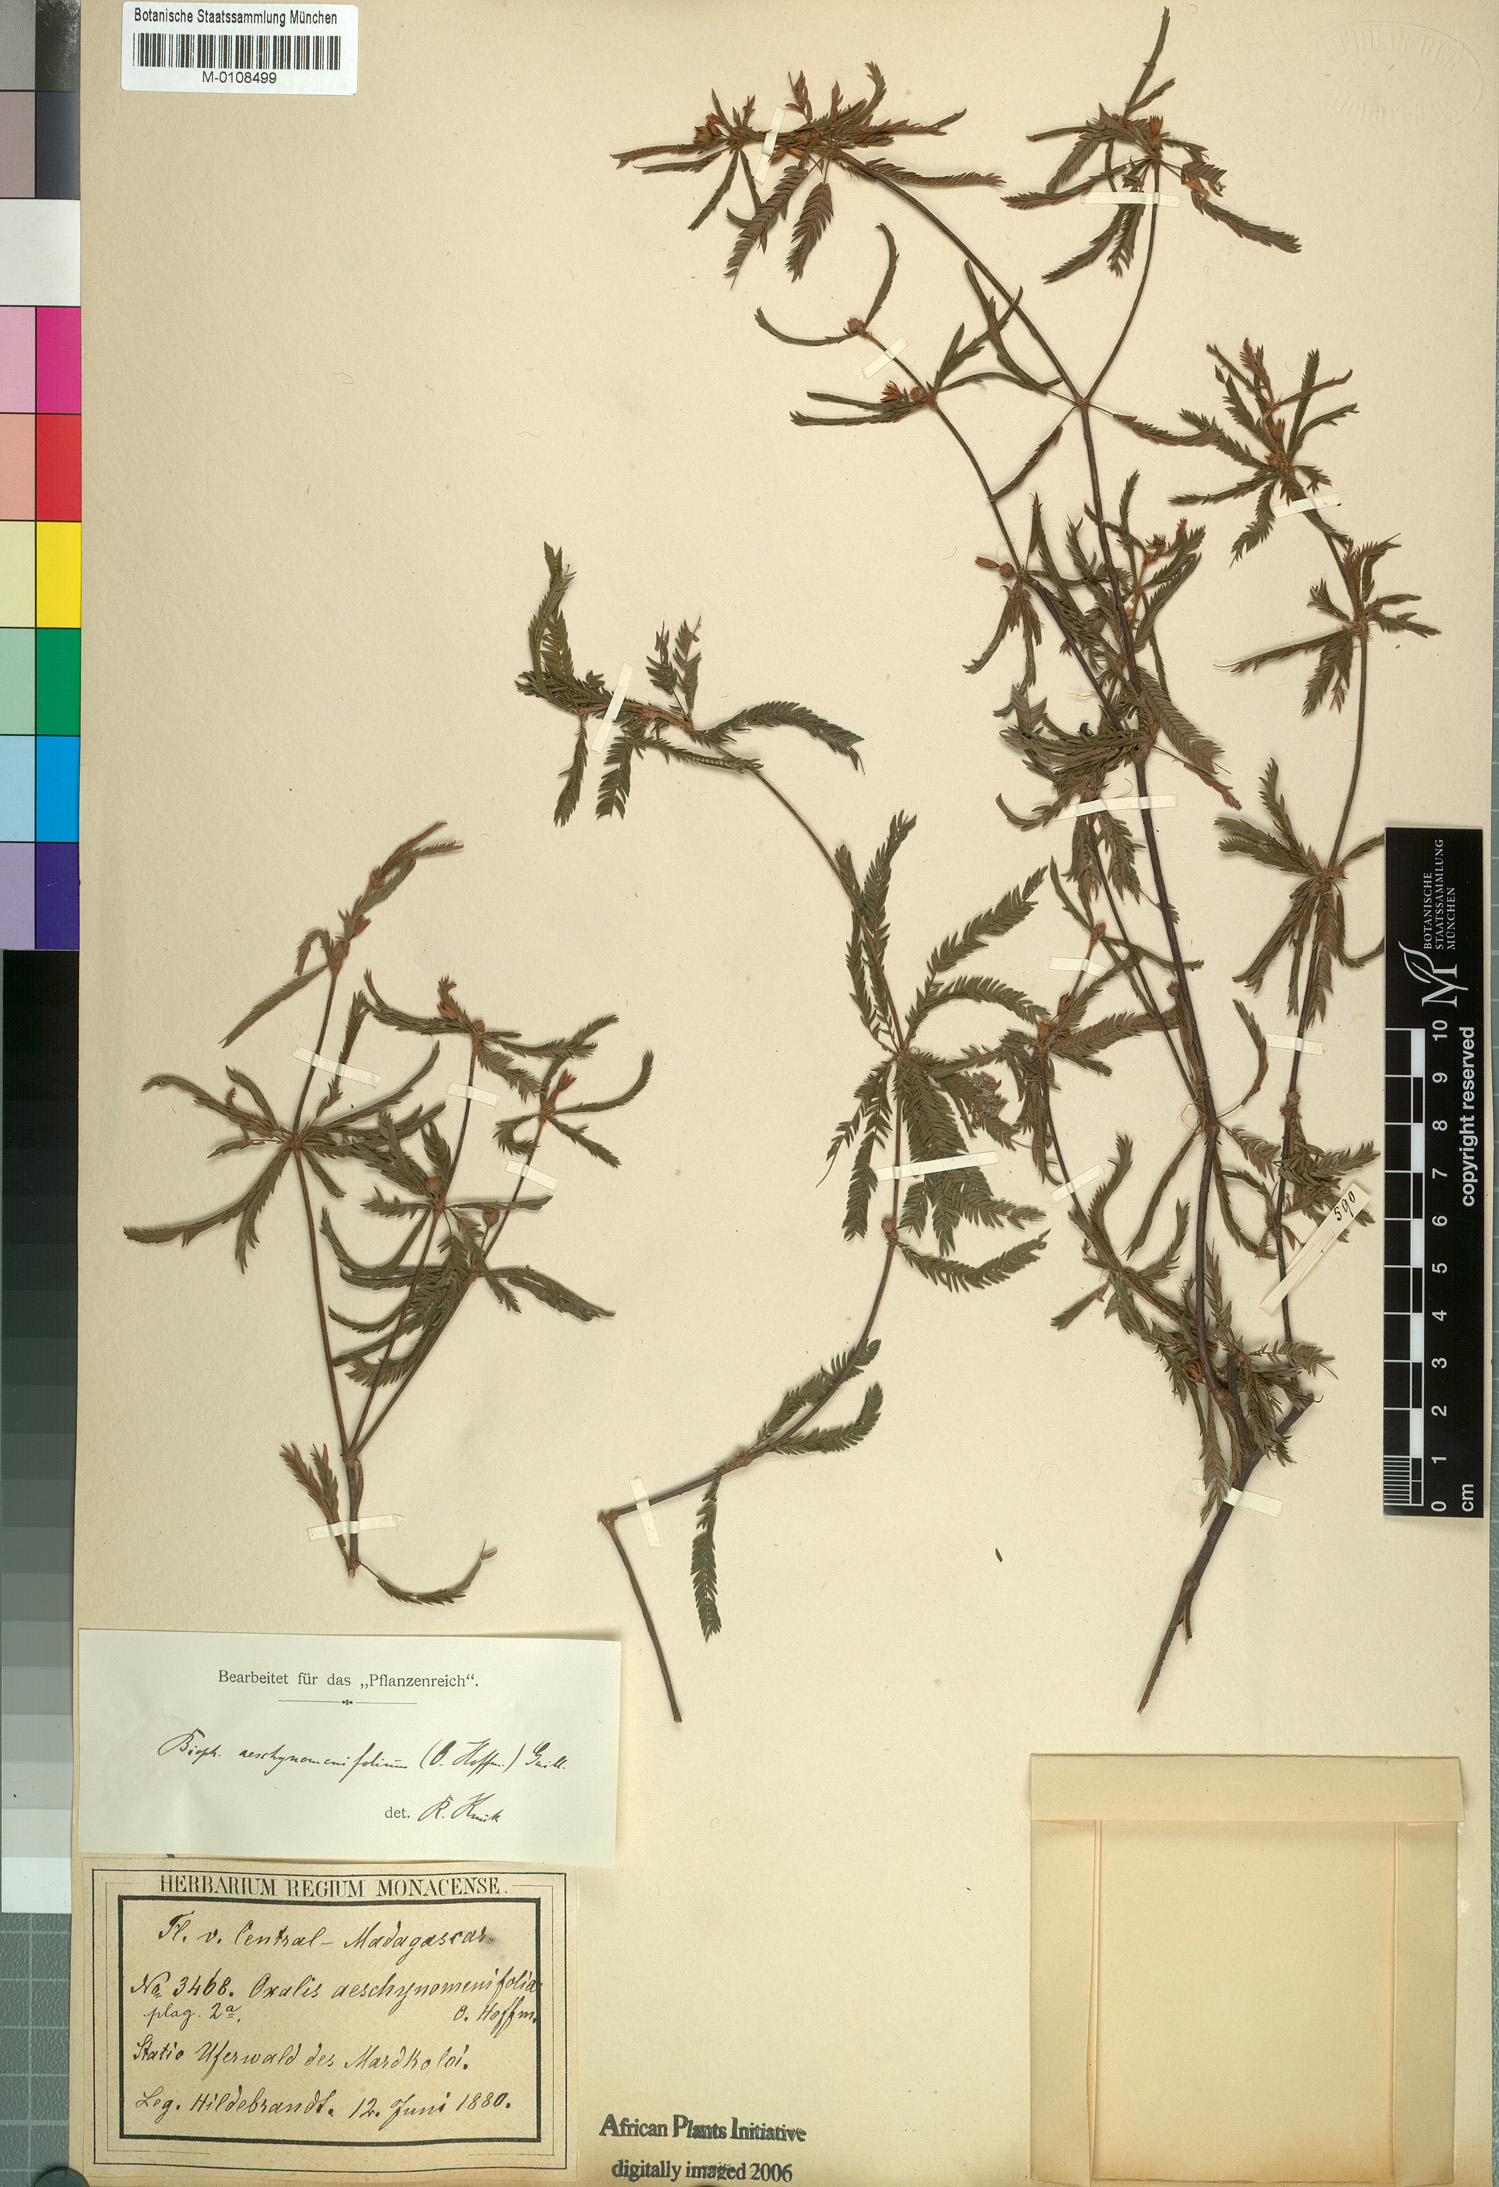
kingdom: Plantae
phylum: Tracheophyta
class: Magnoliopsida
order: Oxalidales
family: Oxalidaceae
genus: Biophytum
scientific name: Biophytum aeschynomenifolia
